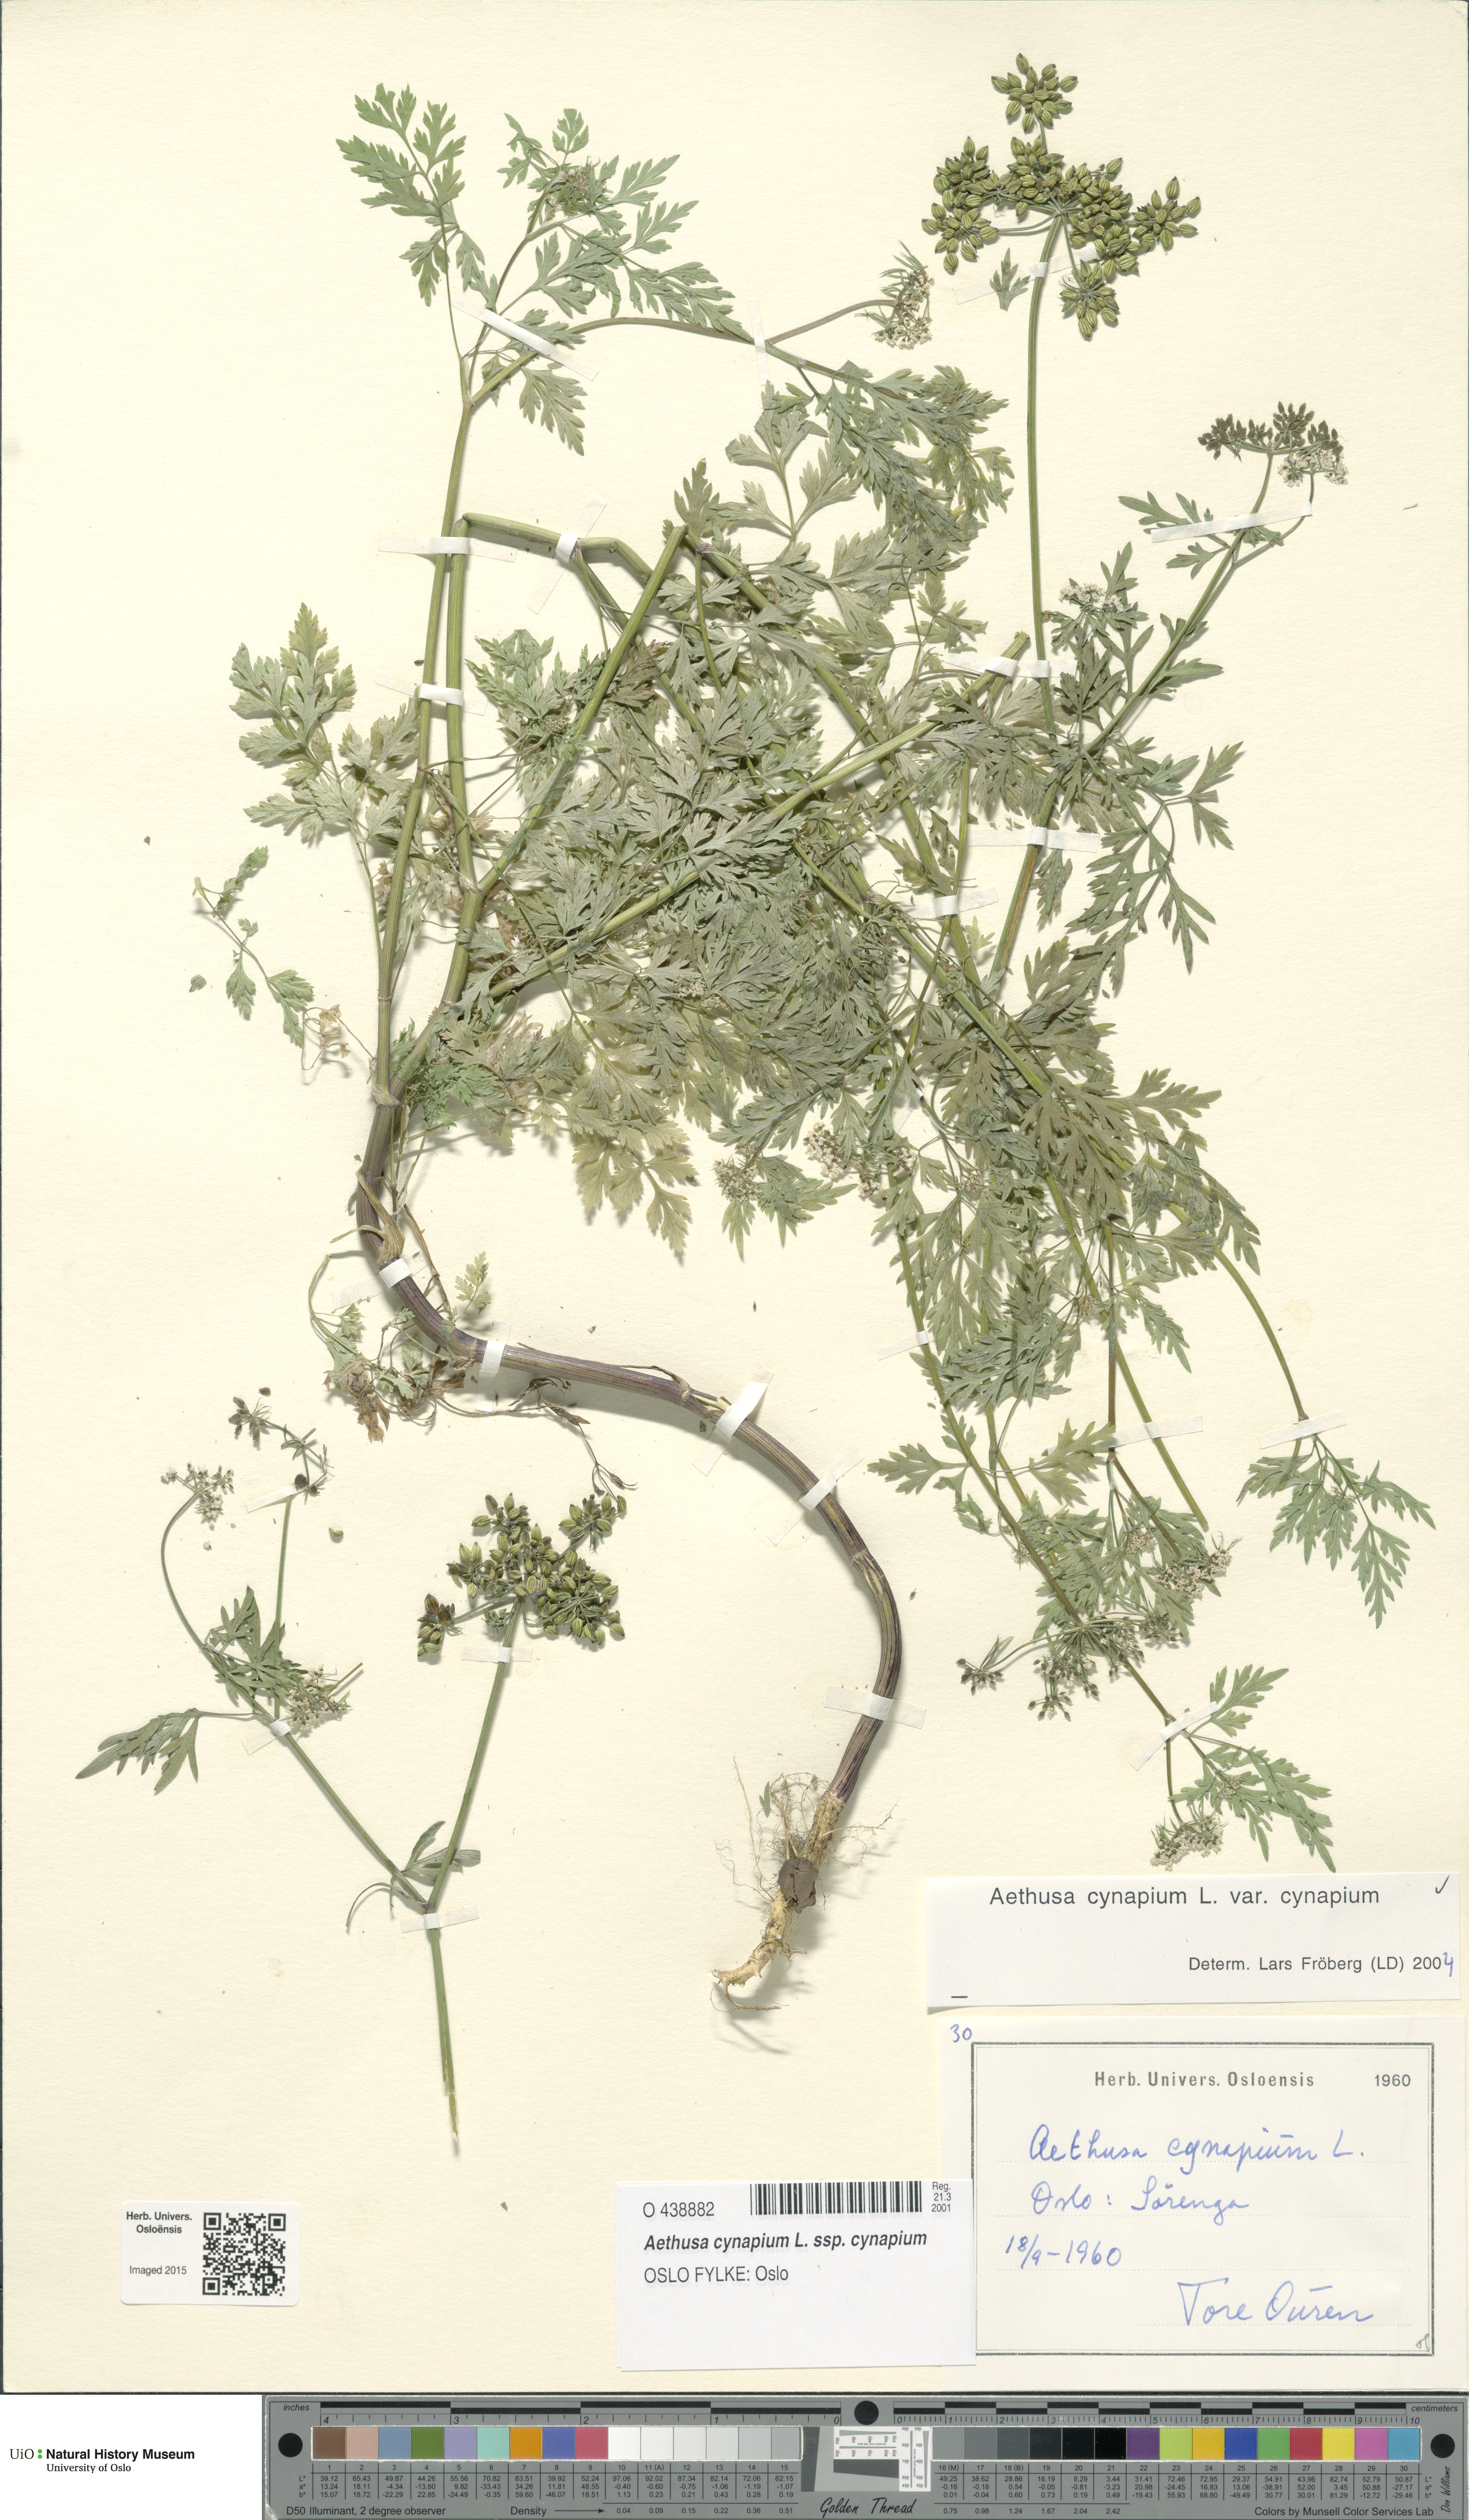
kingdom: Plantae
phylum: Tracheophyta
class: Magnoliopsida
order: Apiales
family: Apiaceae
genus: Aethusa
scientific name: Aethusa cynapium
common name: Fool's parsley
